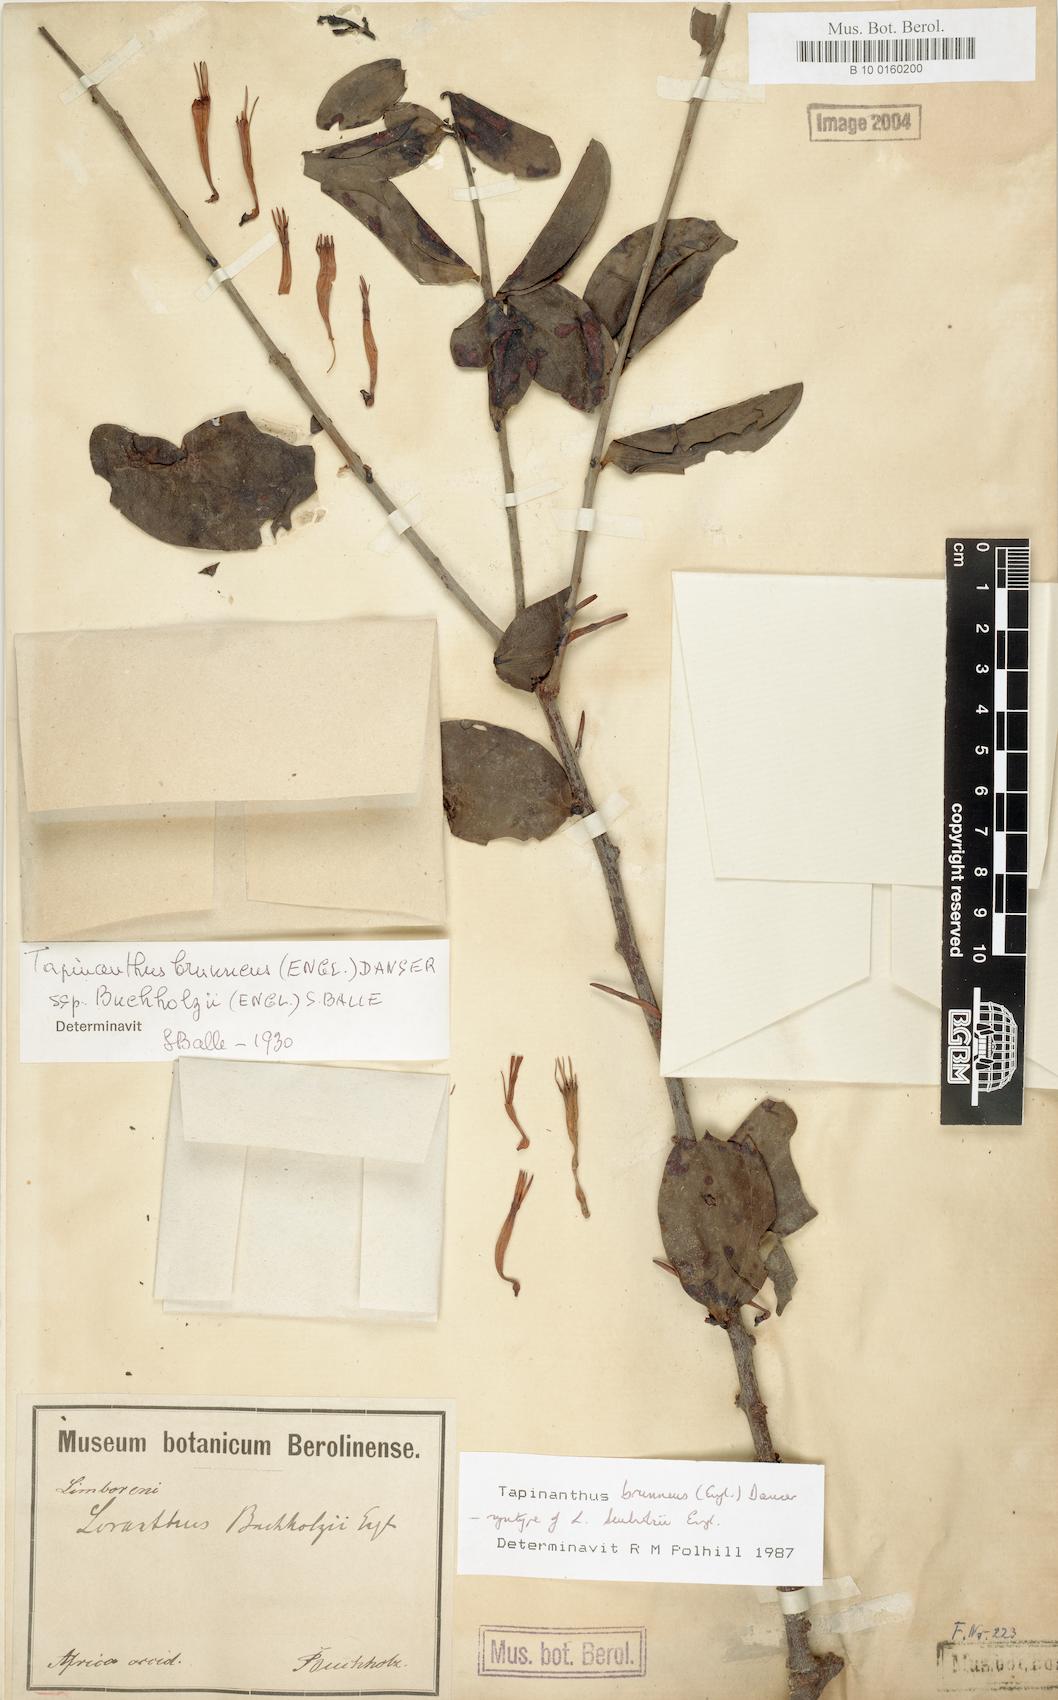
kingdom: Plantae
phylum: Tracheophyta
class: Magnoliopsida
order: Santalales
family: Loranthaceae
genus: Agelanthus
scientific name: Agelanthus brunneus
